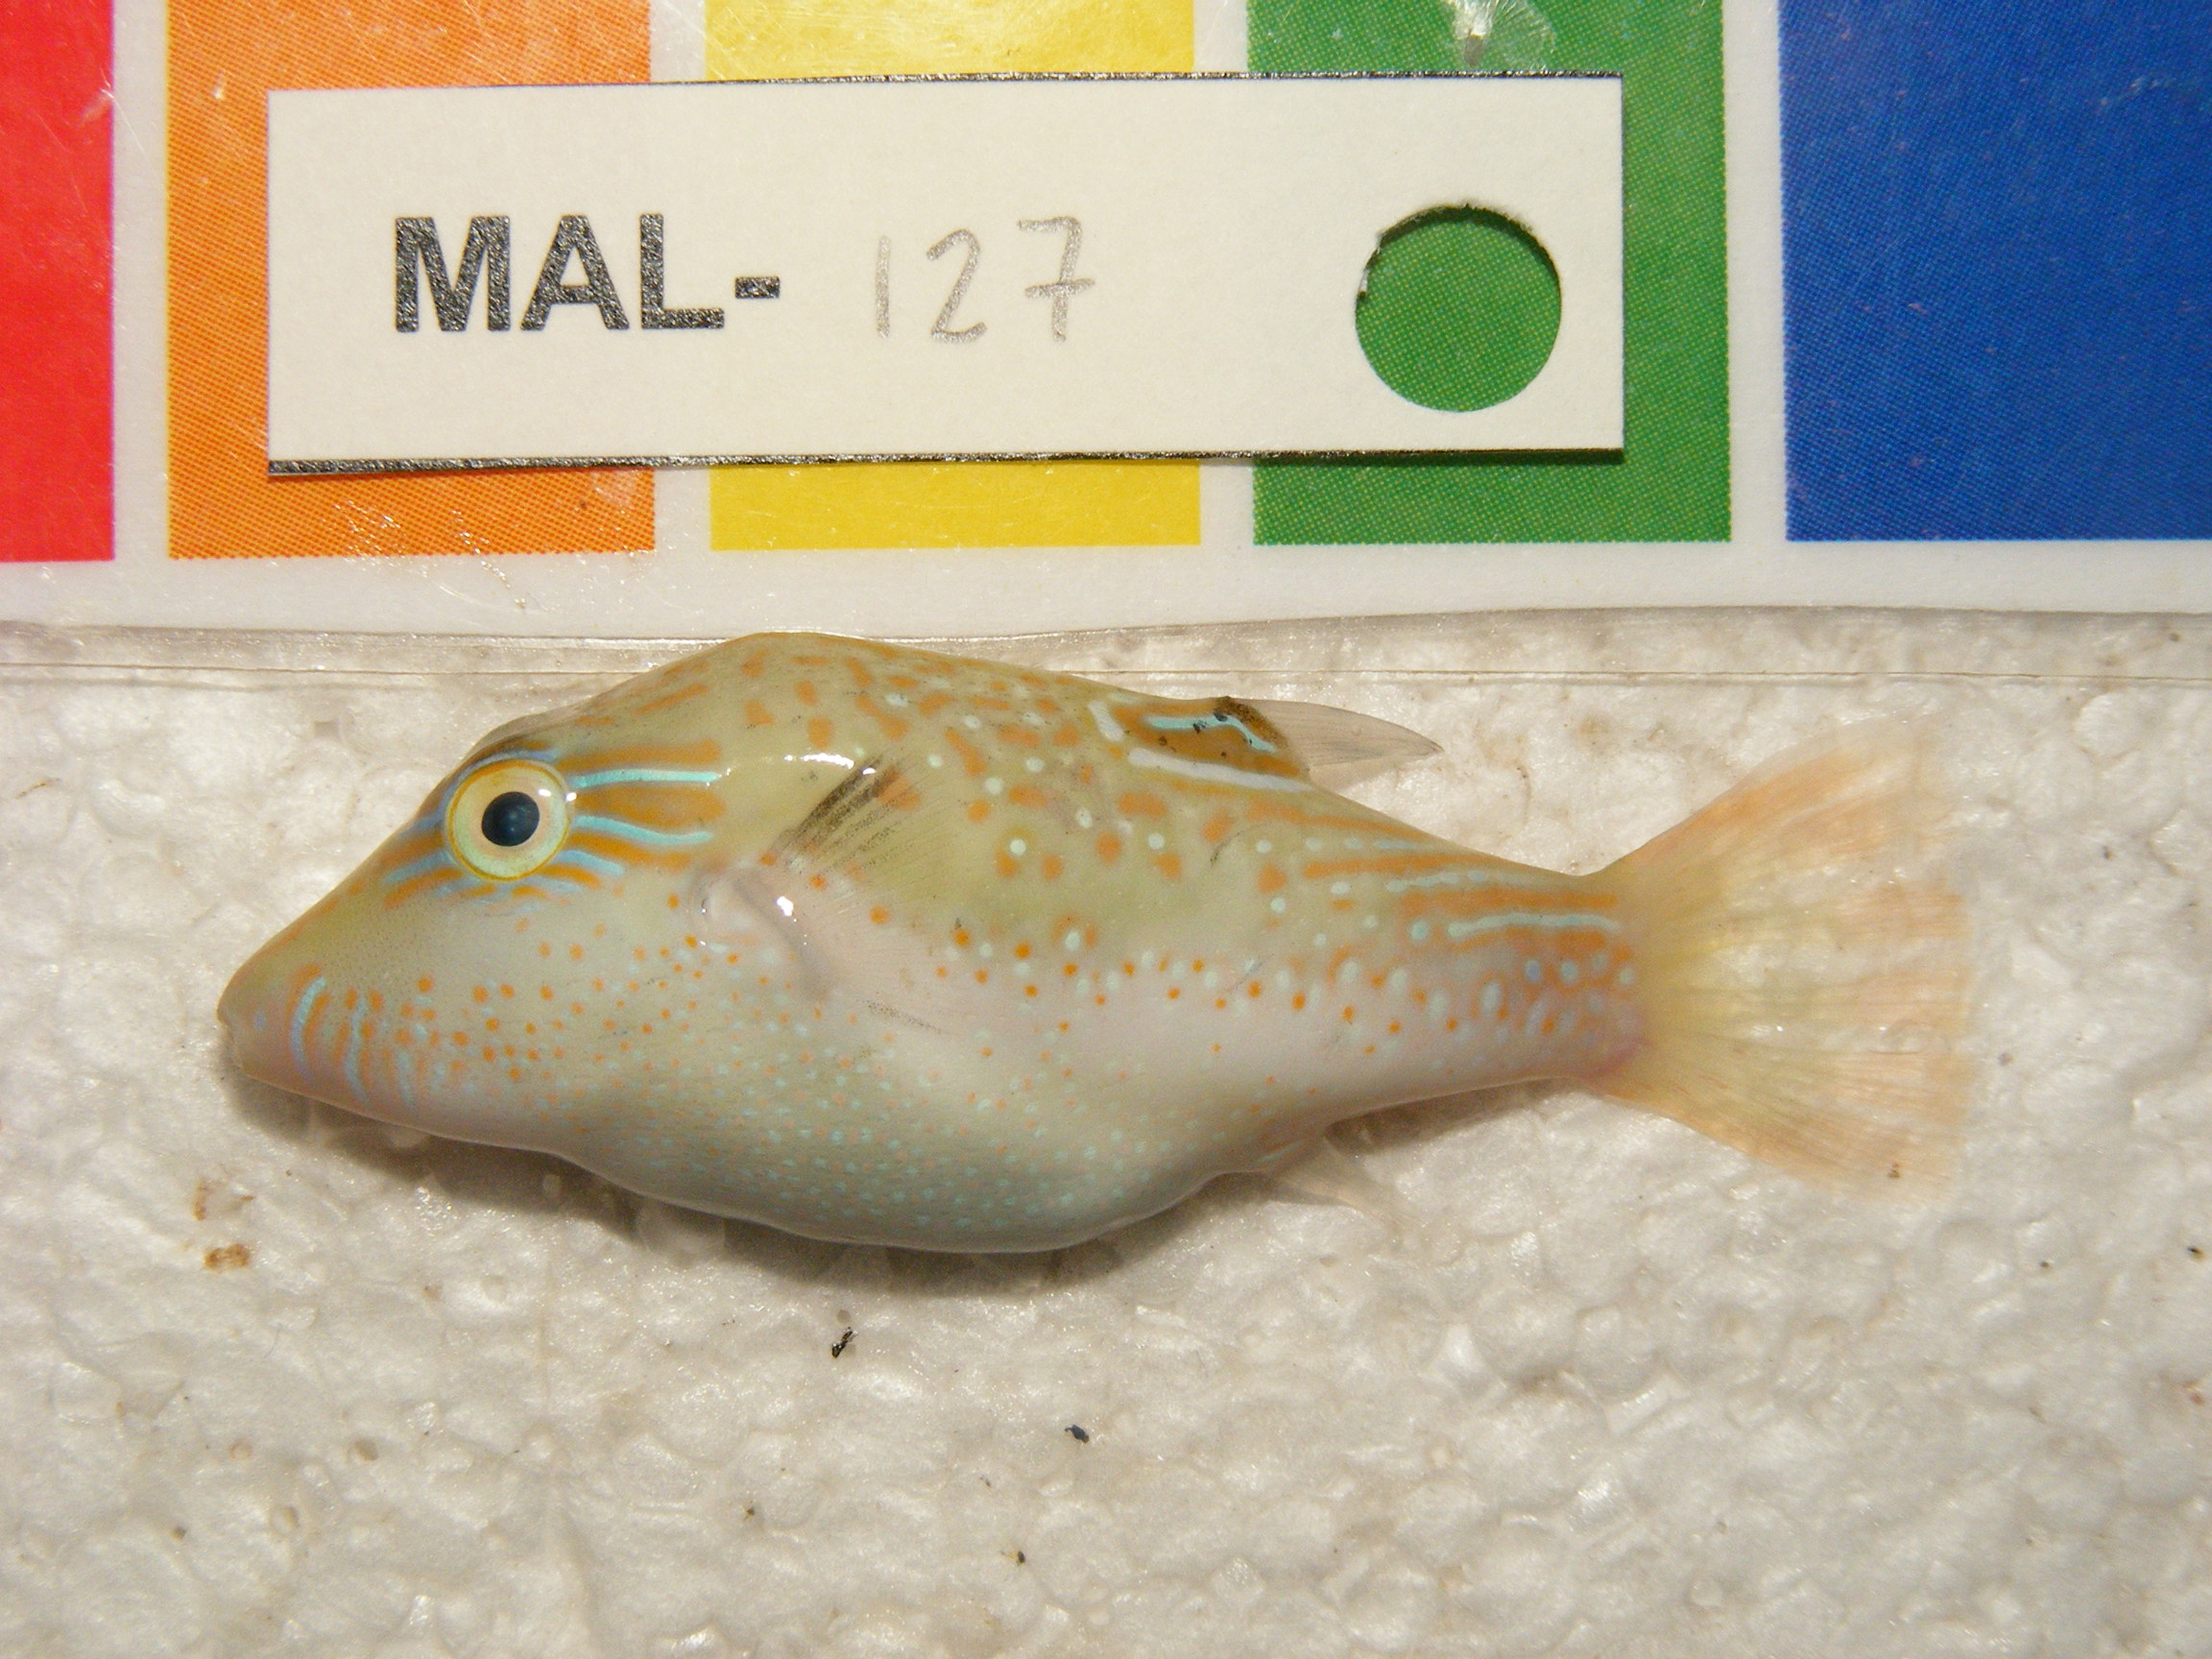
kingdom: Animalia
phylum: Chordata
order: Tetraodontiformes
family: Tetraodontidae
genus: Canthigaster
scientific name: Canthigaster bennetti
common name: Bennett's pufferfish
